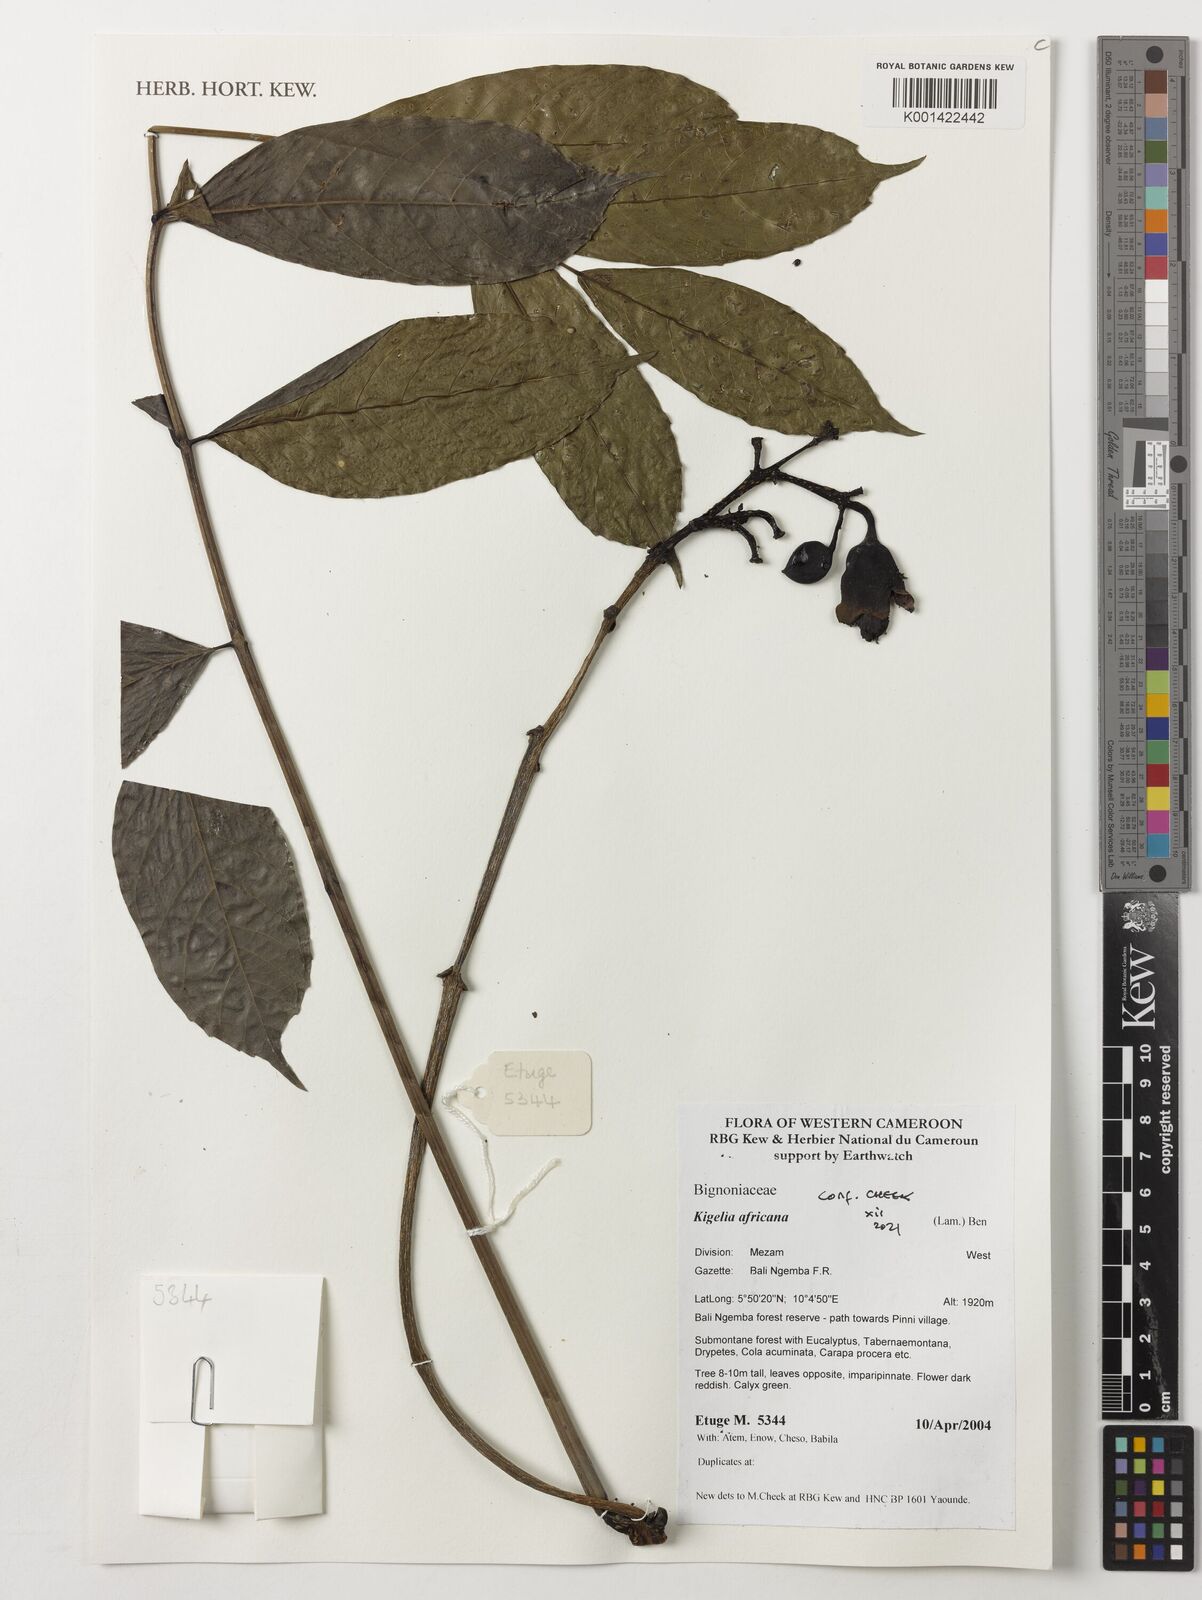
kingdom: Plantae
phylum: Tracheophyta
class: Magnoliopsida
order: Lamiales
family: Bignoniaceae
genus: Kigelia
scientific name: Kigelia africana
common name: Sausage tree
